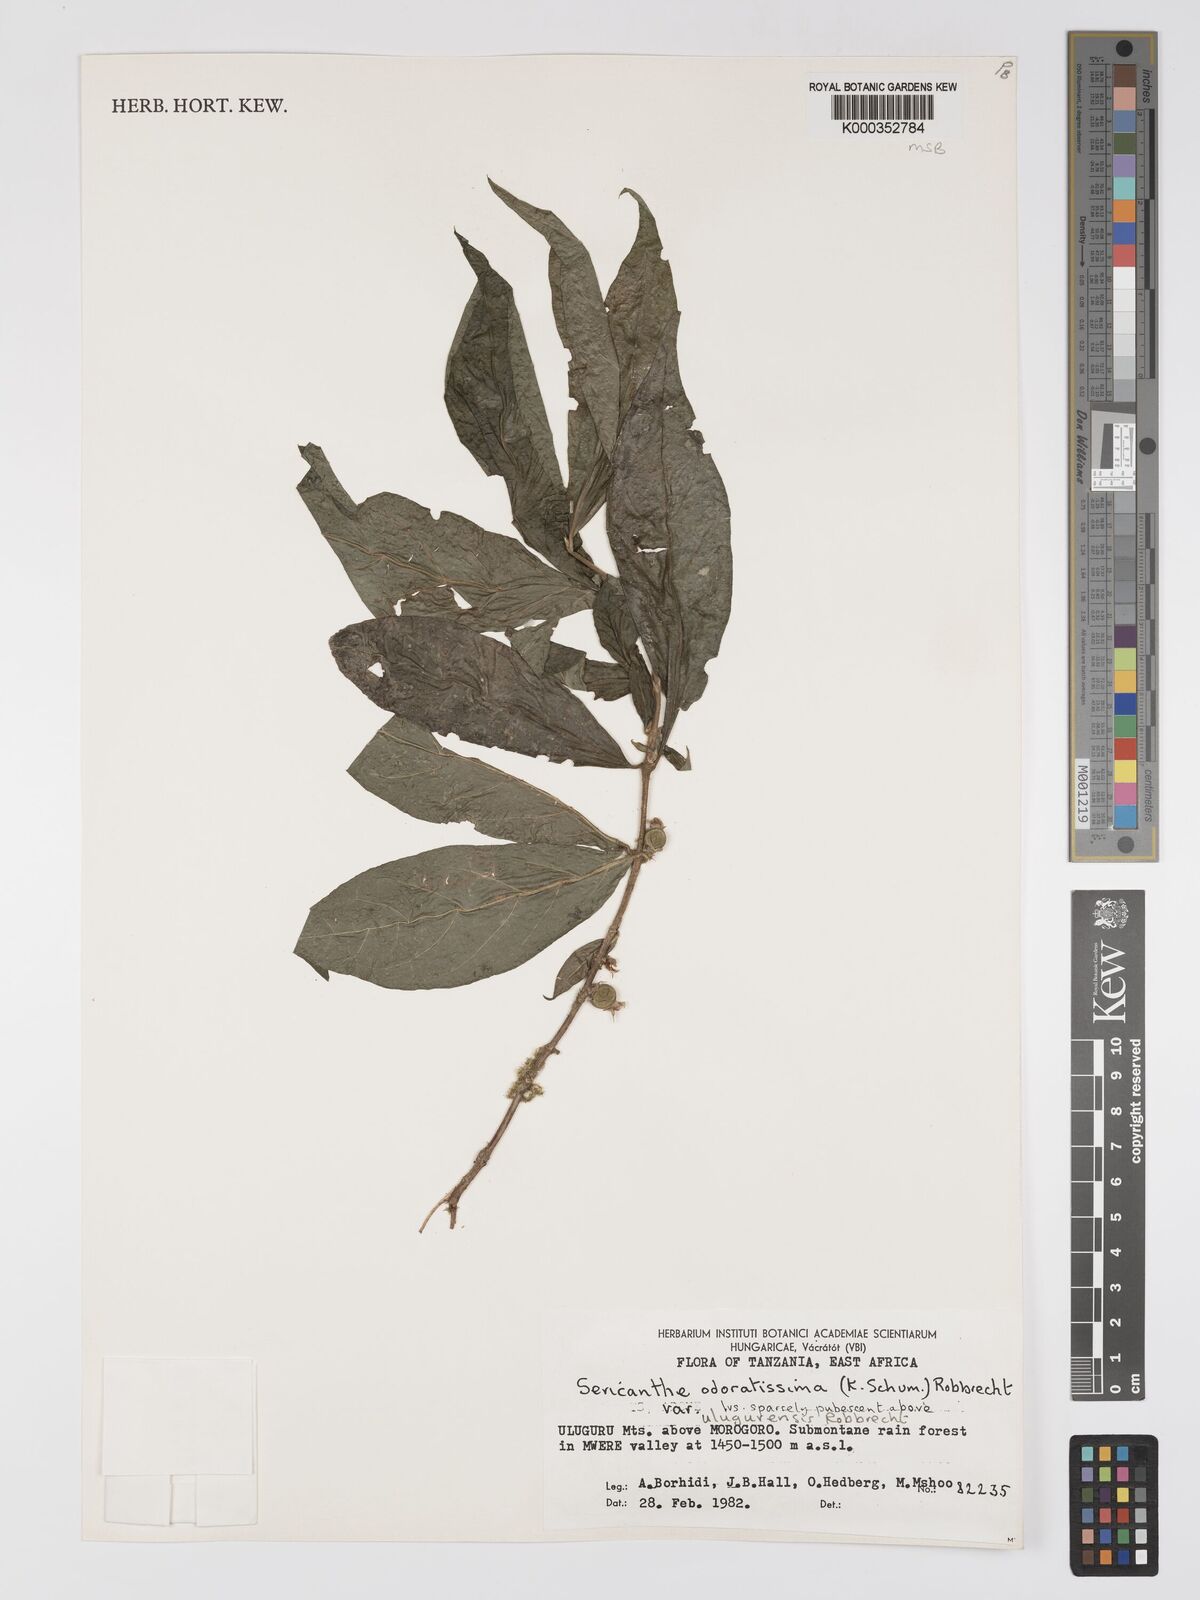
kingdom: Plantae
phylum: Tracheophyta
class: Magnoliopsida
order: Gentianales
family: Rubiaceae
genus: Sericanthe
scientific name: Sericanthe odoratissima
